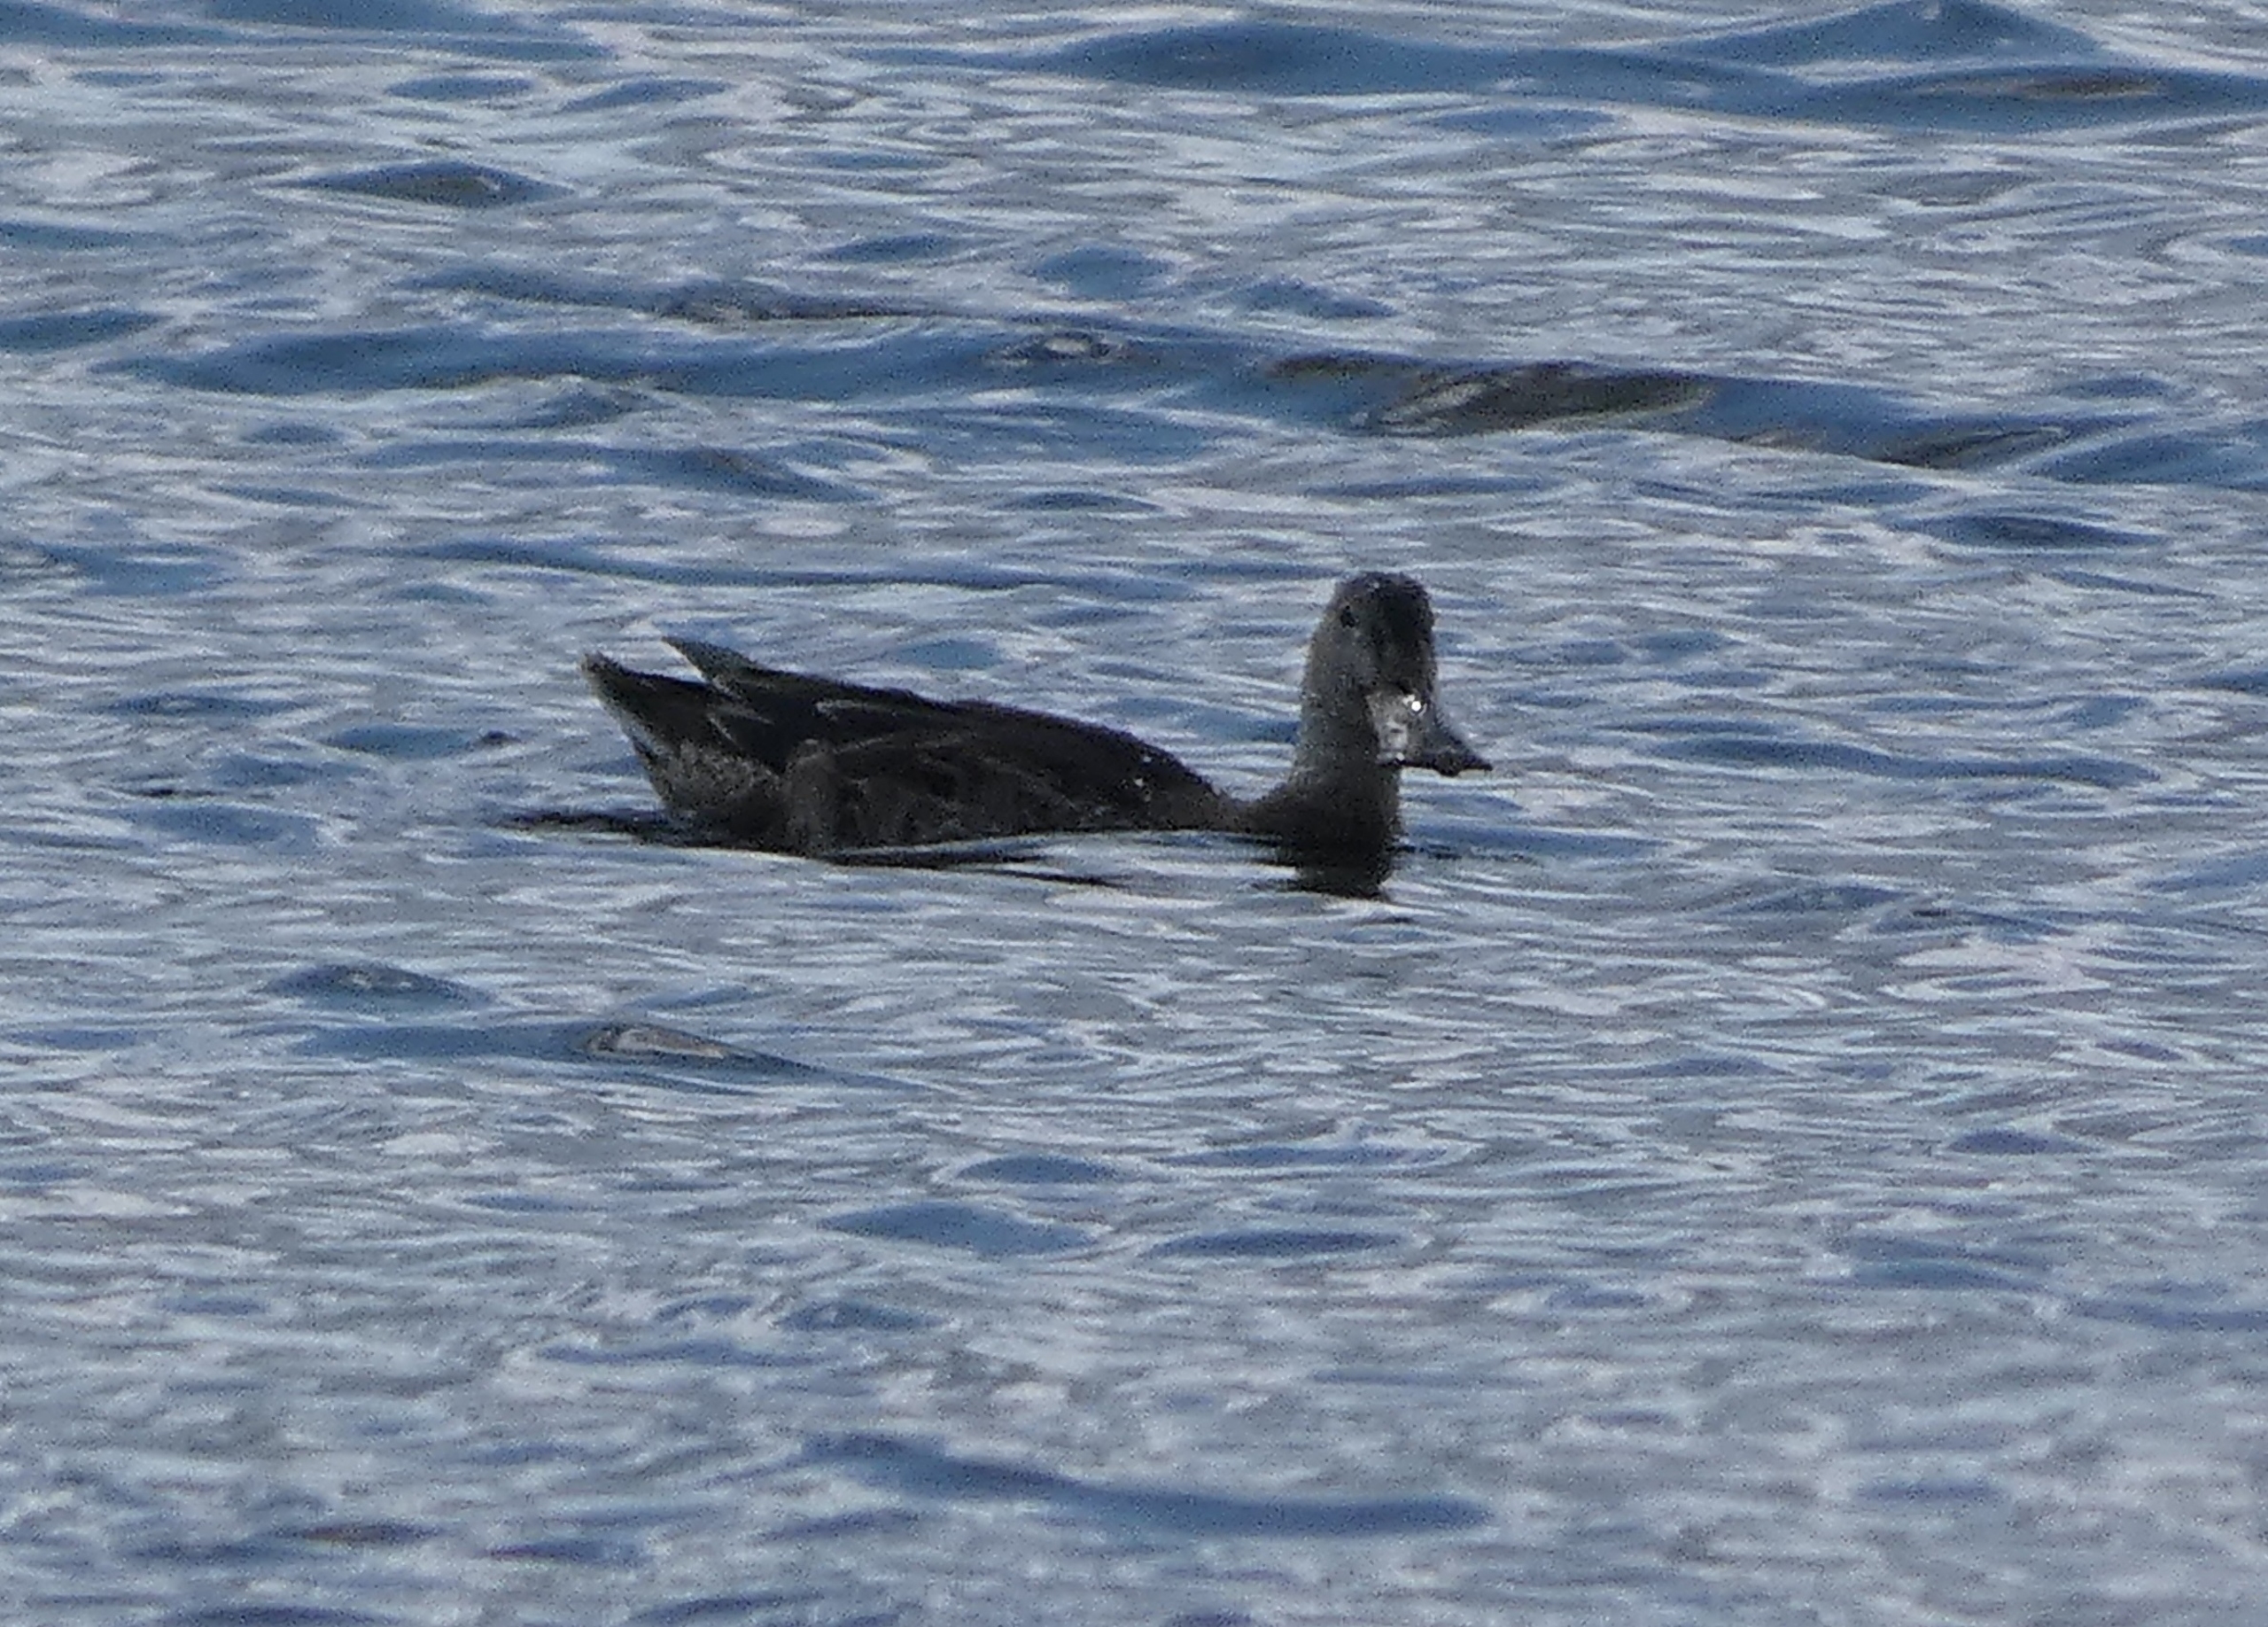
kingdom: Animalia
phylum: Chordata
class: Aves
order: Anseriformes
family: Anatidae
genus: Spatula
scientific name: Spatula clypeata
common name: Skeand
